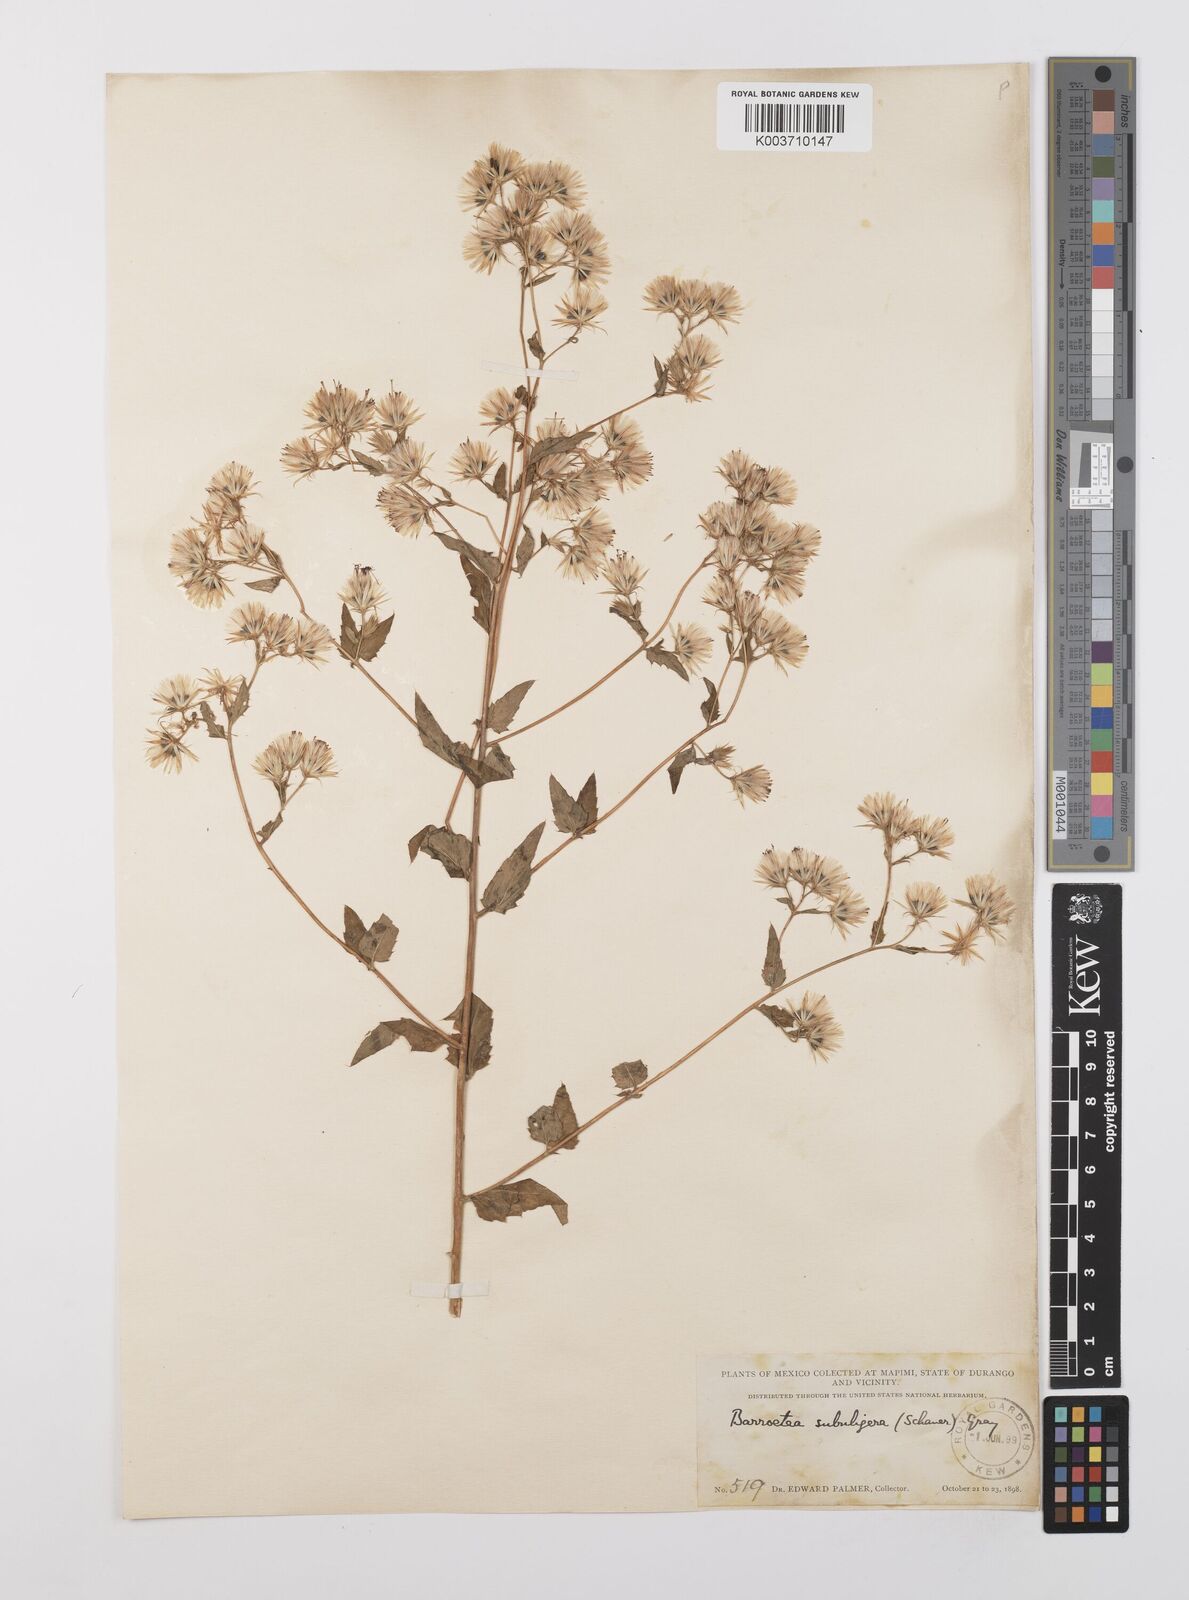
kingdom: Plantae
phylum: Tracheophyta
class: Magnoliopsida
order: Asterales
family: Asteraceae
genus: Brickellia
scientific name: Brickellia subuligera
